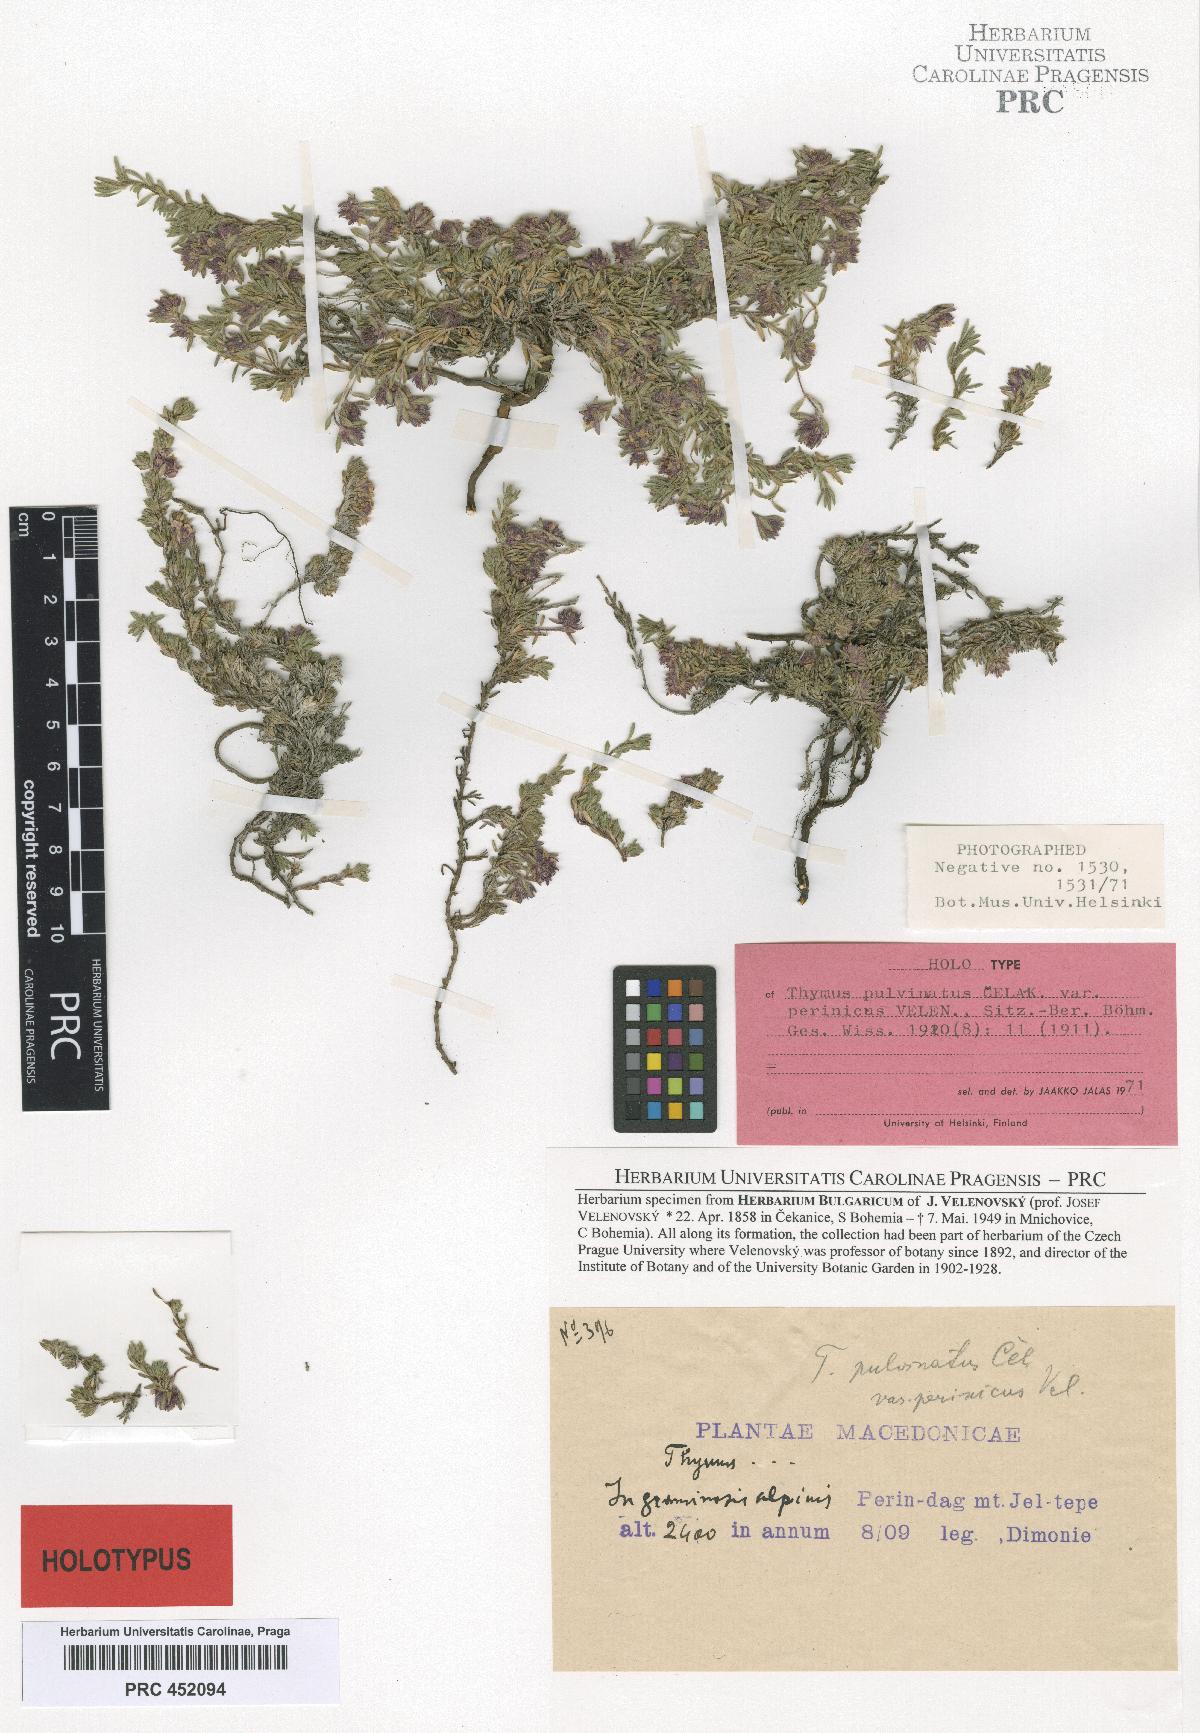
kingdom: Plantae
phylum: Tracheophyta
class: Magnoliopsida
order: Lamiales
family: Lamiaceae
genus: Thymus
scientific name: Thymus perinicus
